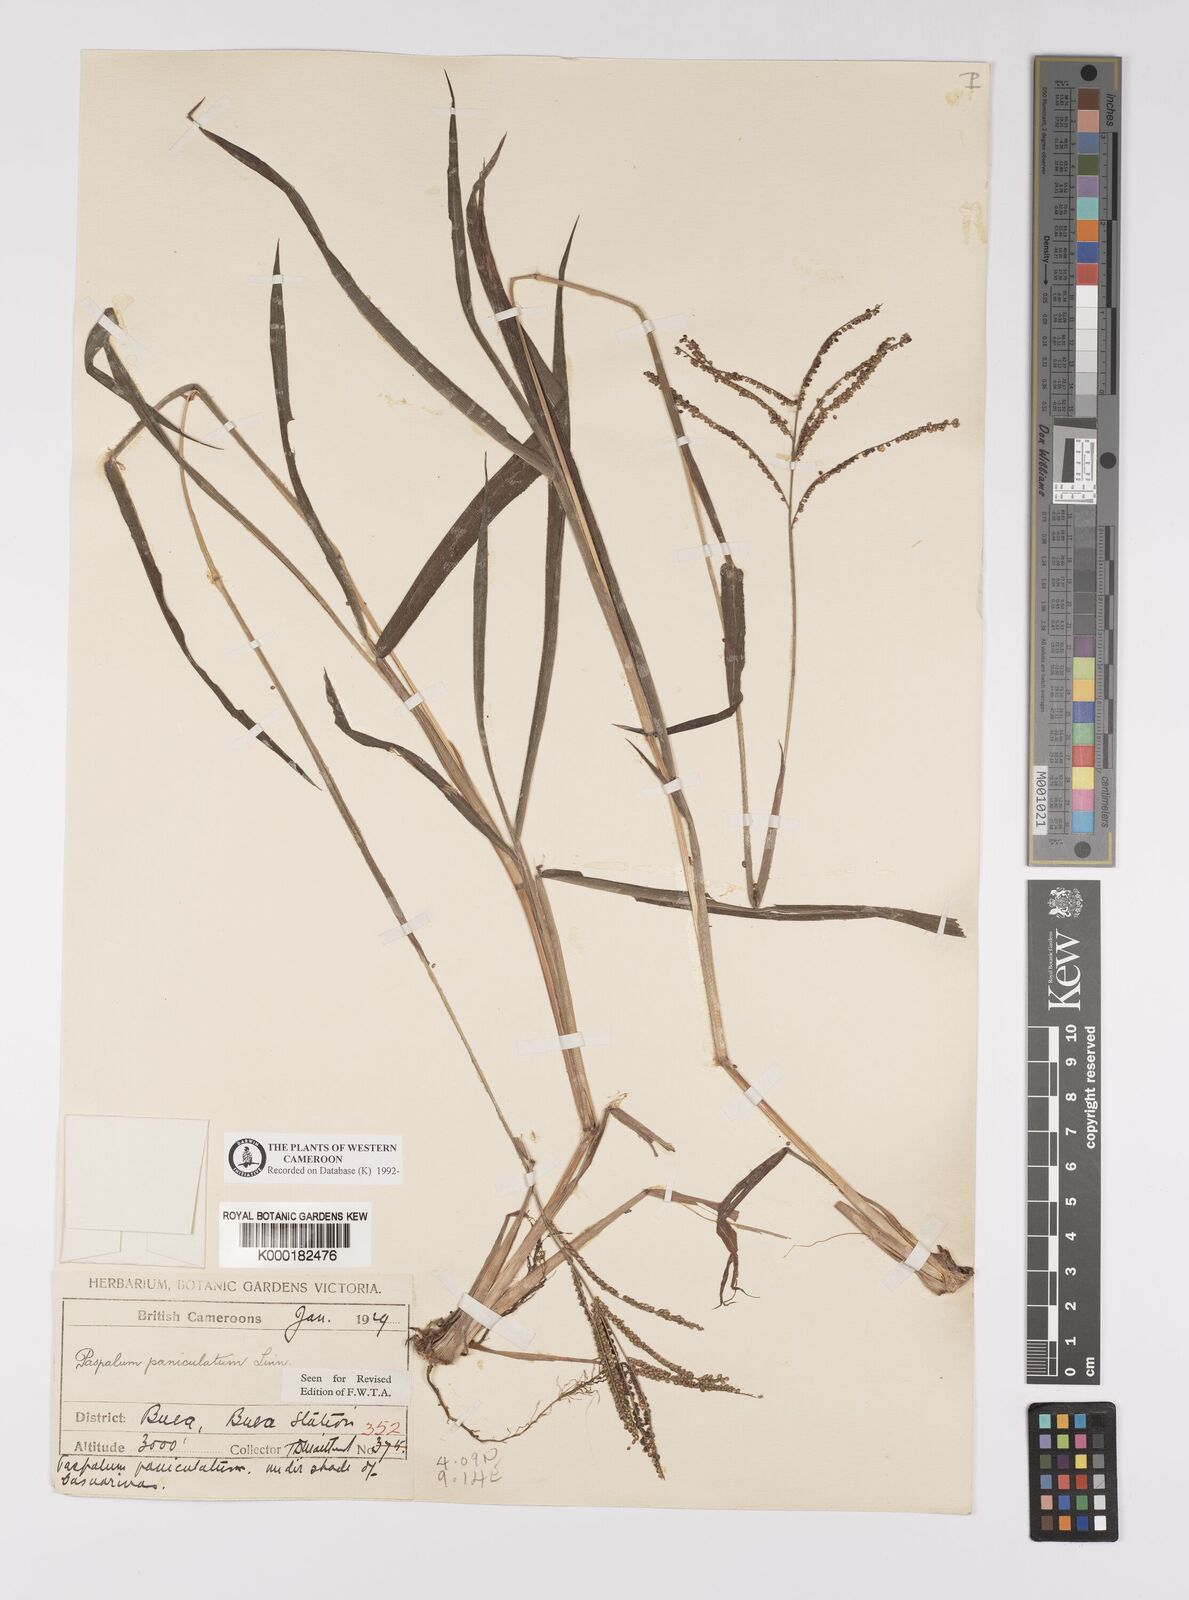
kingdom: Plantae
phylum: Tracheophyta
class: Liliopsida
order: Poales
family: Poaceae
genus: Paspalum
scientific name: Paspalum paniculatum
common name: Arrocillo
